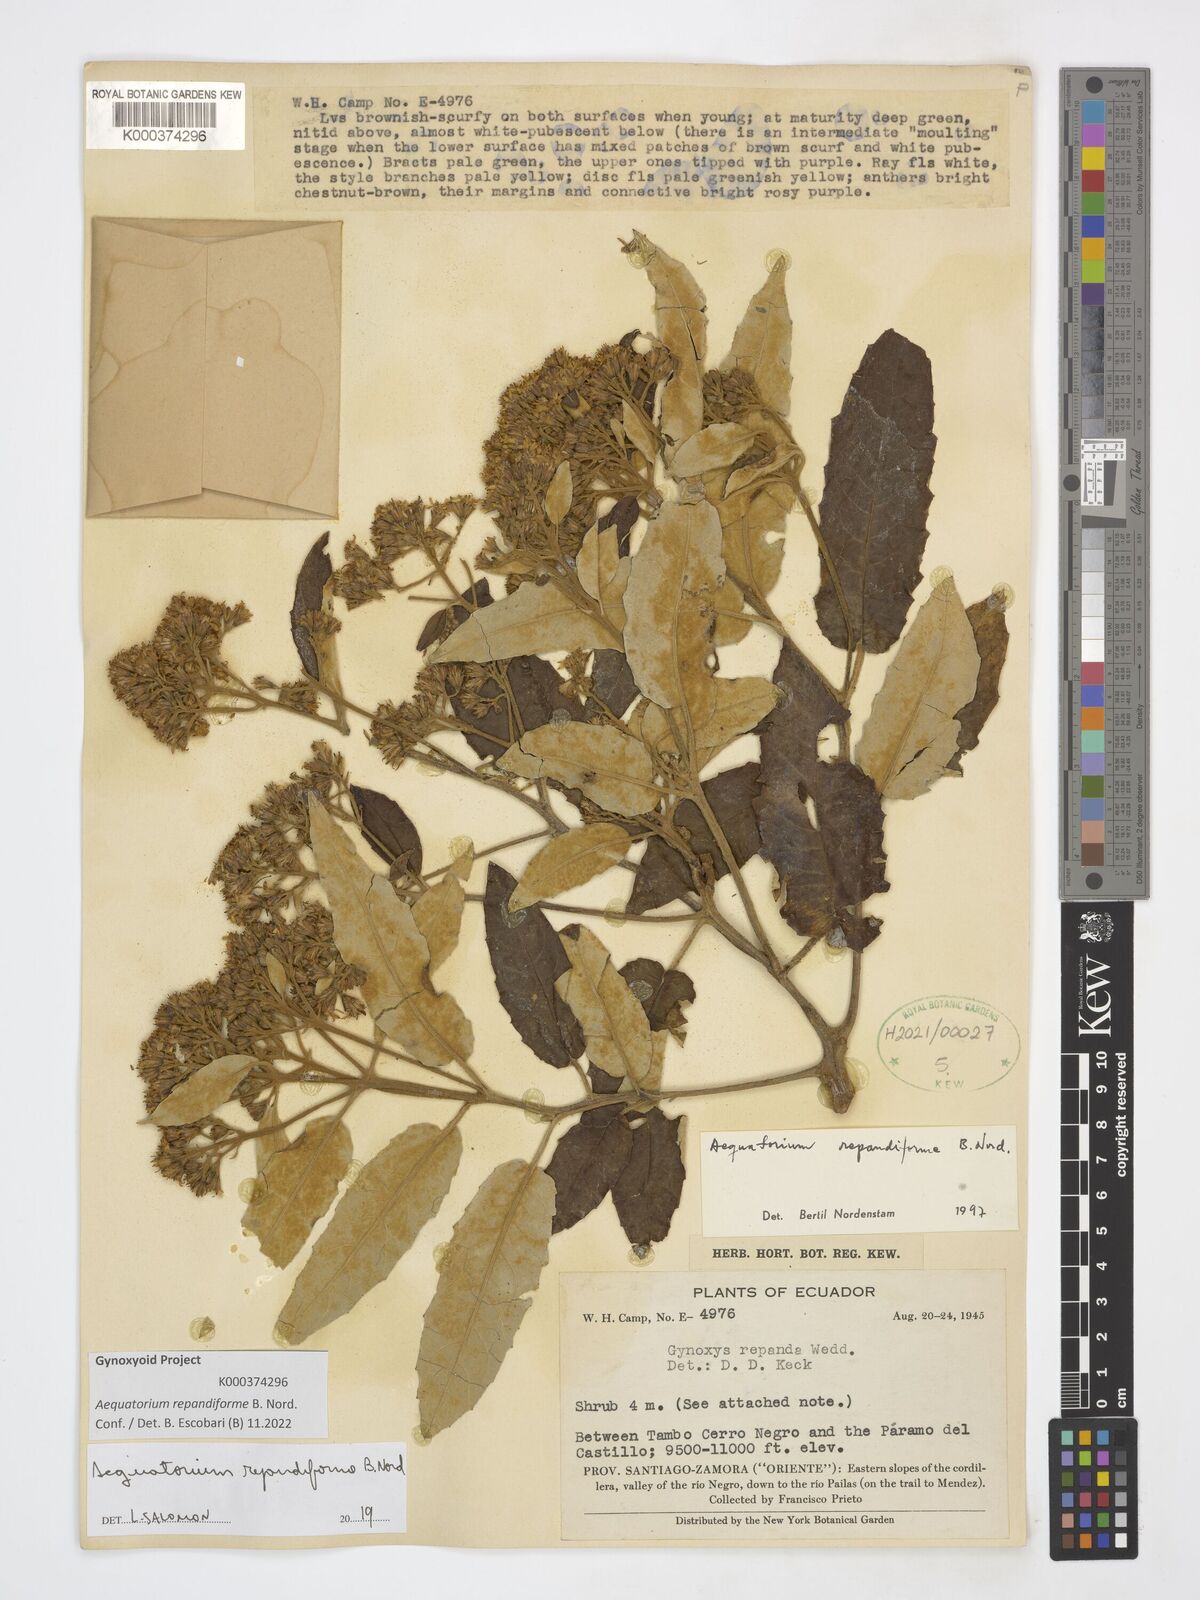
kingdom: Plantae
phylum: Tracheophyta
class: Magnoliopsida
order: Asterales
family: Asteraceae
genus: Aequatorium
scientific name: Aequatorium repandiforme
